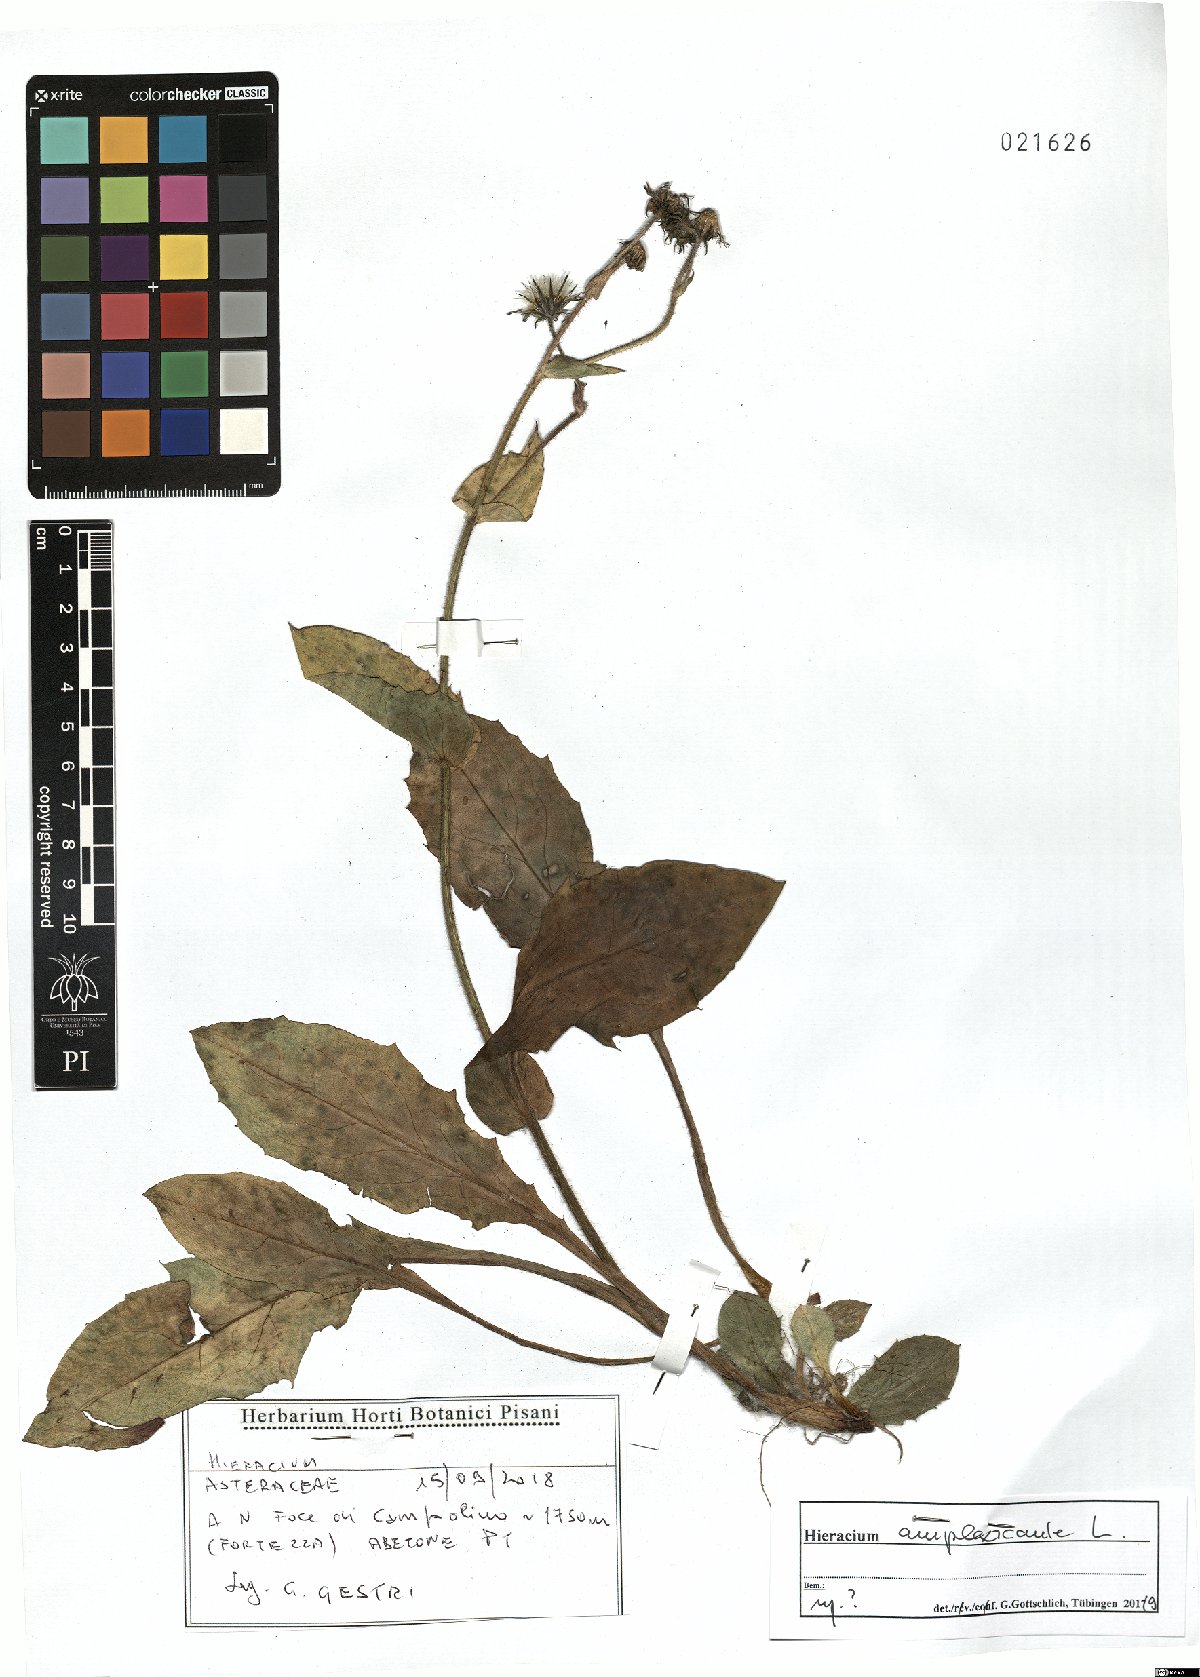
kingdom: Plantae
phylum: Tracheophyta
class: Magnoliopsida
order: Asterales
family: Asteraceae
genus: Hieracium
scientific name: Hieracium amplexicaule
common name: Sticky hawkweed
